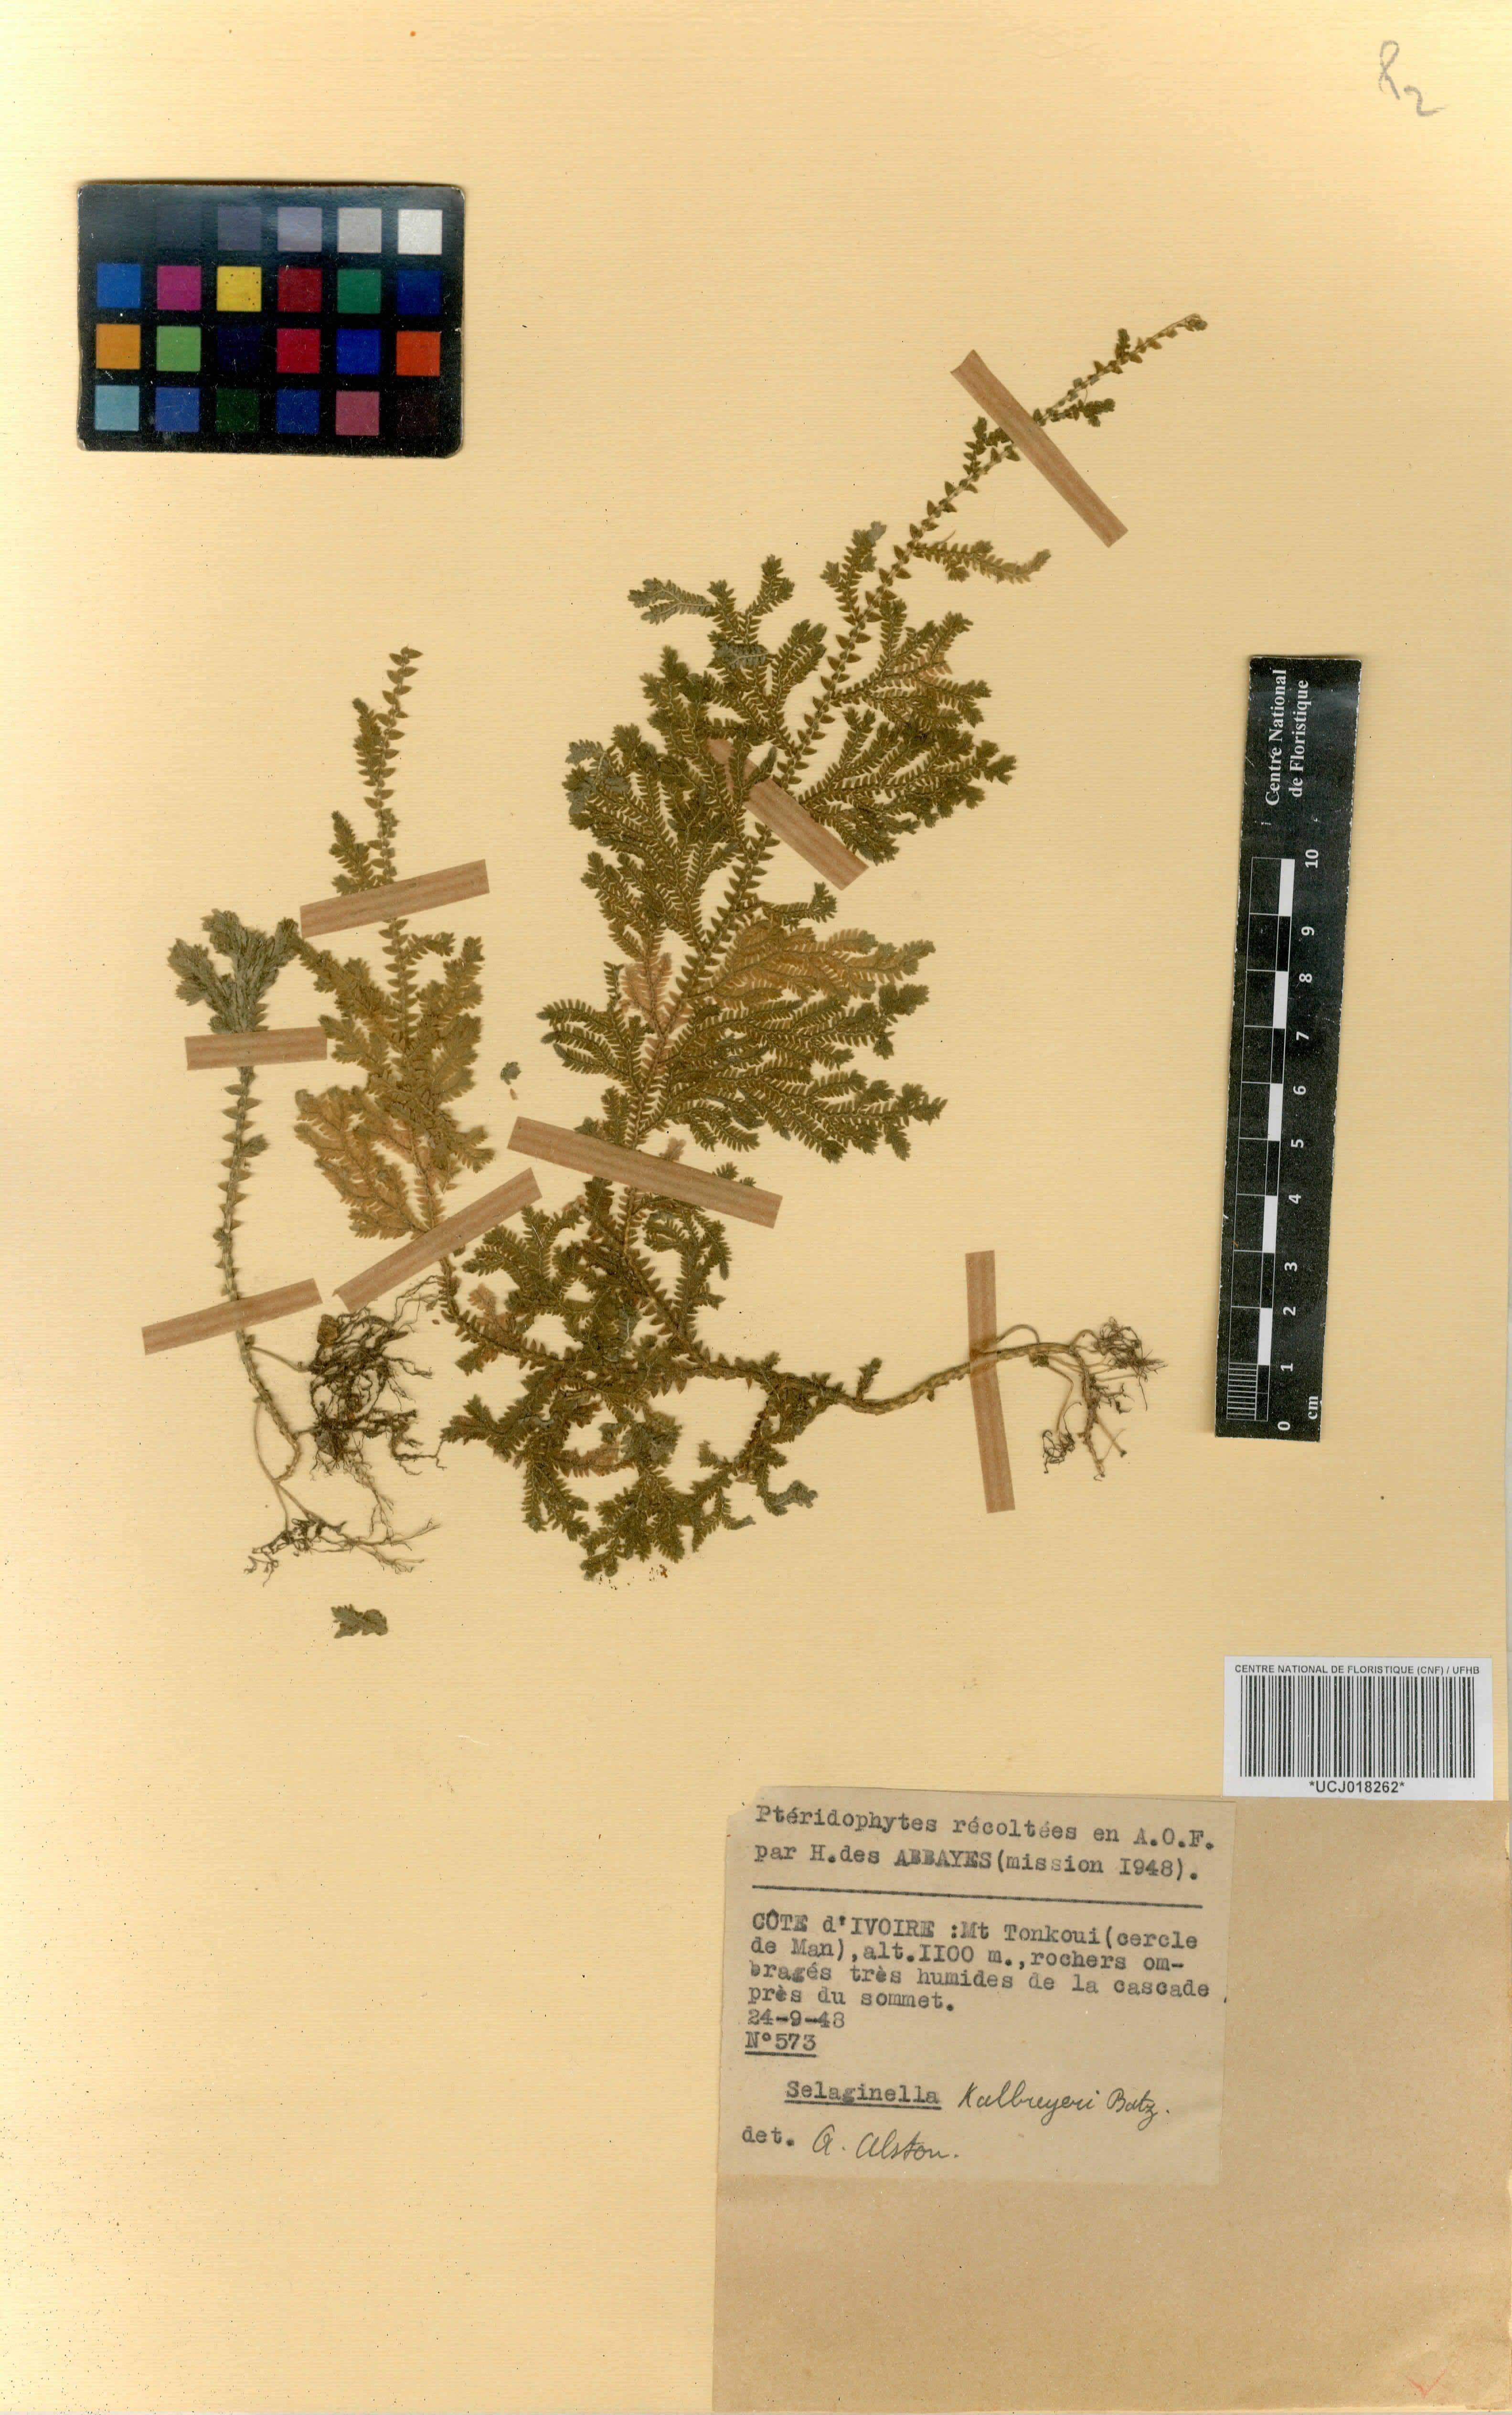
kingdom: Plantae
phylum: Tracheophyta
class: Lycopodiopsida
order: Selaginellales
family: Selaginellaceae
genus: Selaginella
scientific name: Selaginella kalbreyeri
